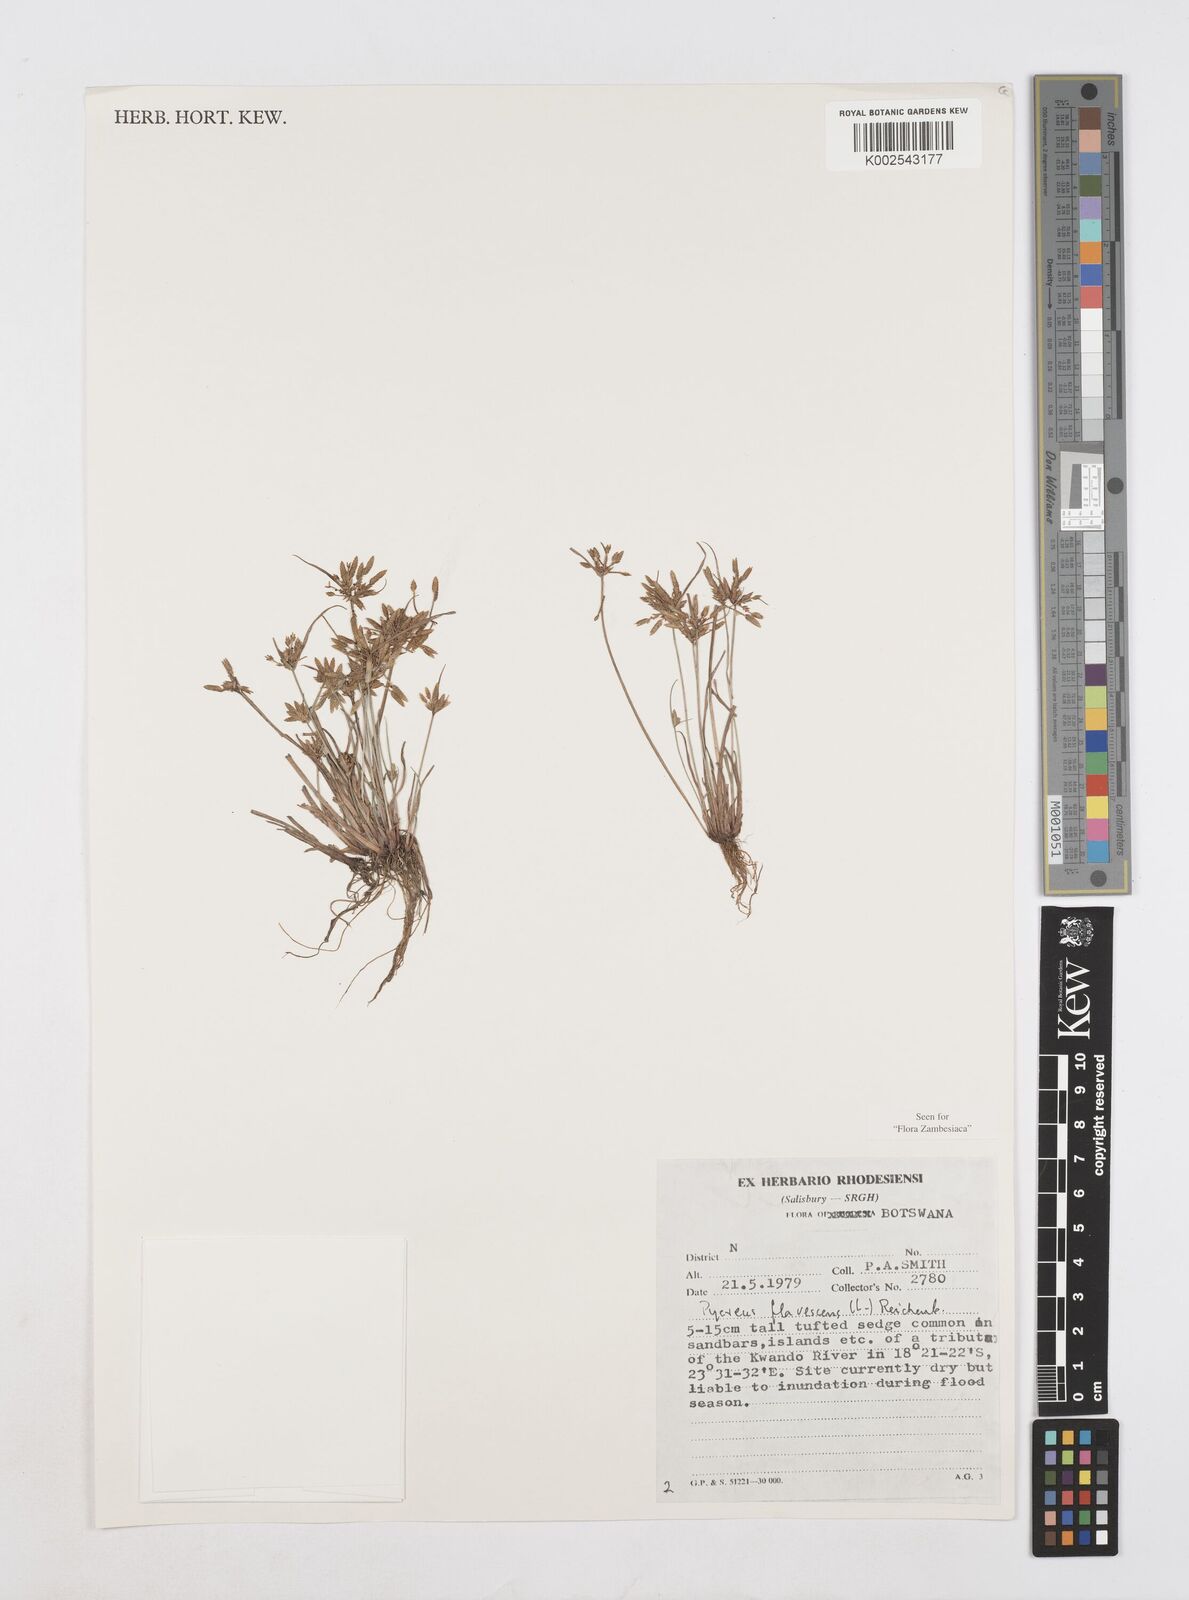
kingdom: Plantae
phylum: Tracheophyta
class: Liliopsida
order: Poales
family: Cyperaceae
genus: Cyperus
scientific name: Cyperus flavescens
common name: Yellow galingale
